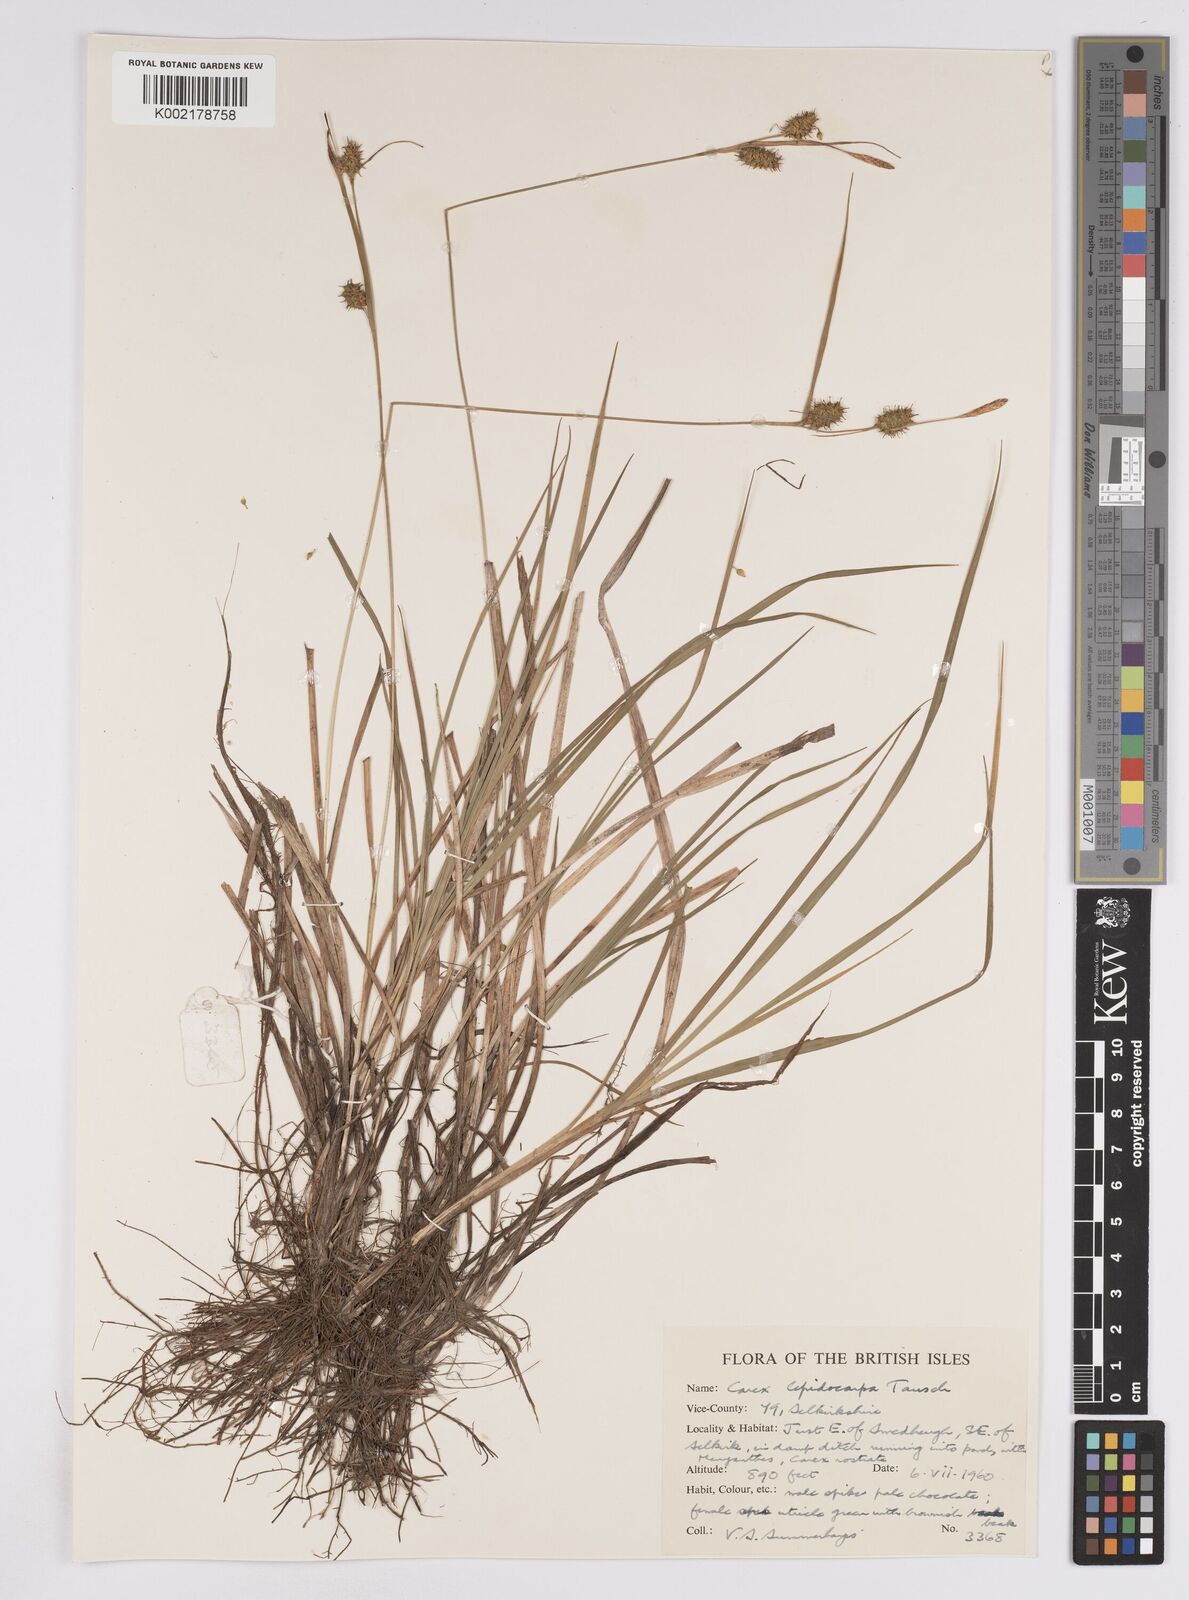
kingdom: Plantae
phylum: Tracheophyta
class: Liliopsida
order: Poales
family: Cyperaceae
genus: Carex
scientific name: Carex lepidocarpa
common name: Long-stalked yellow-sedge
